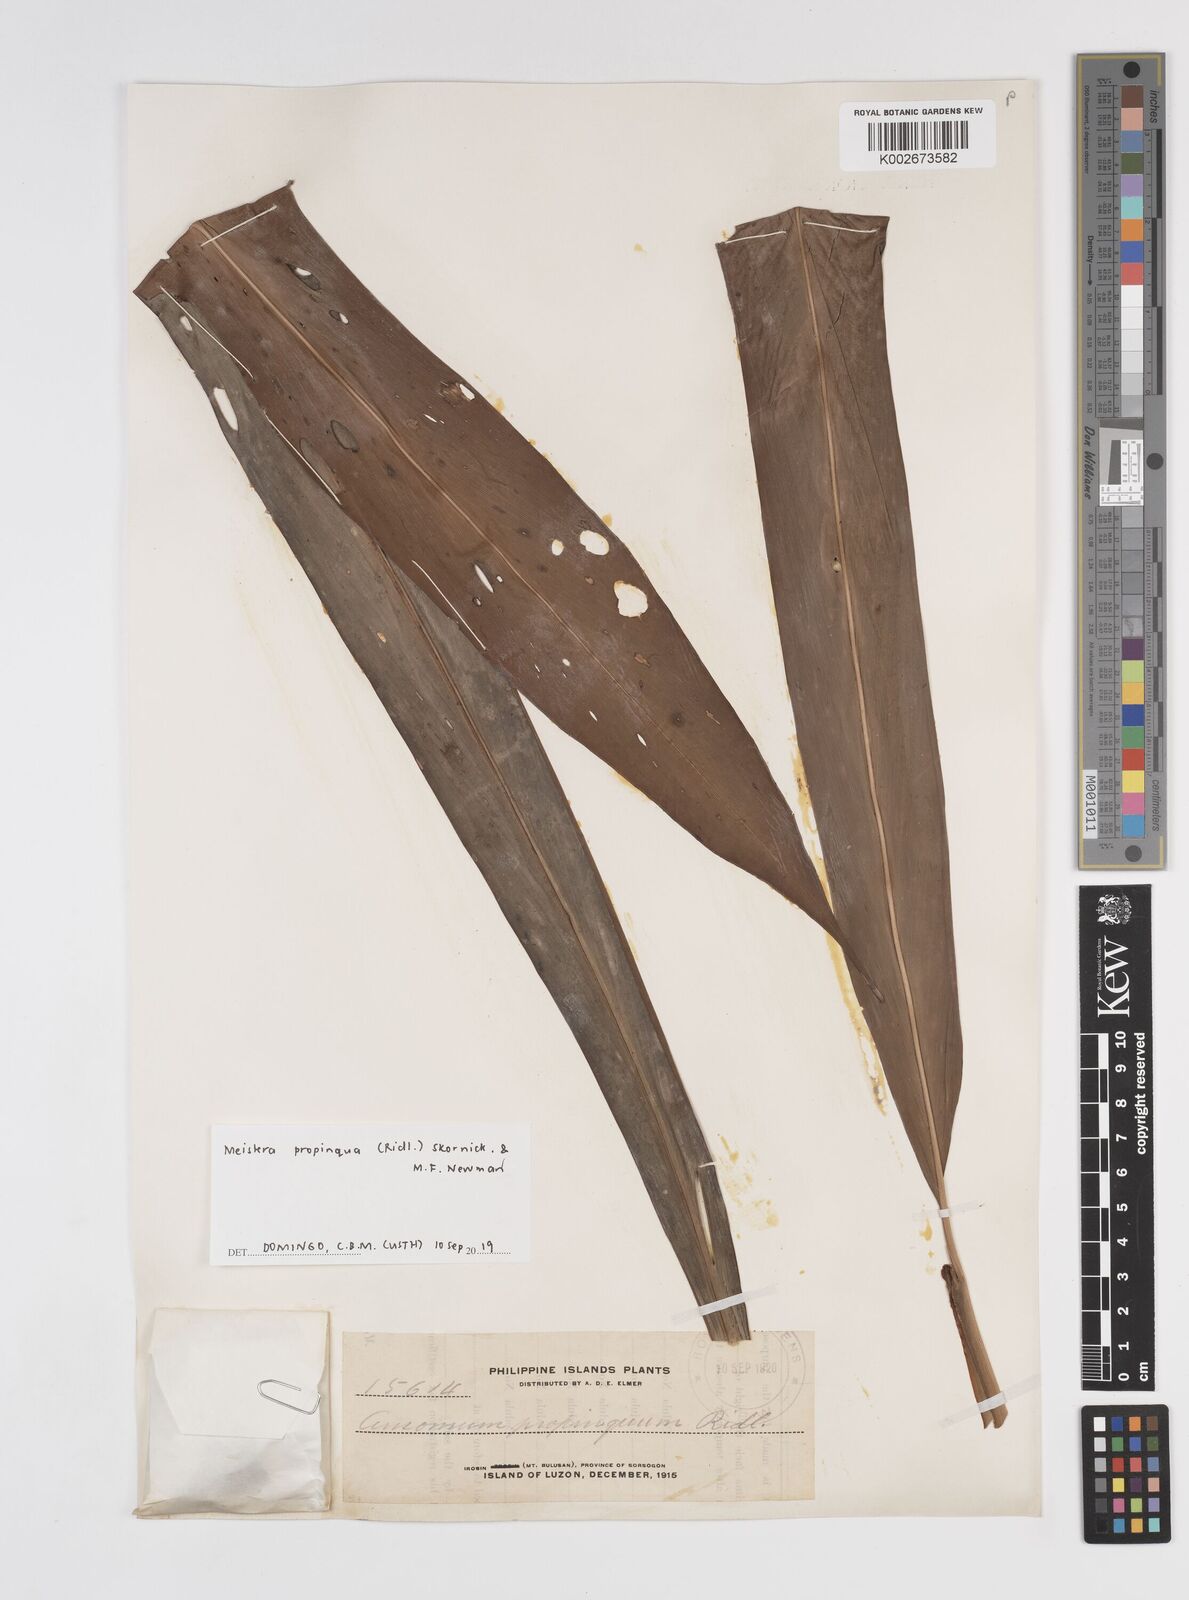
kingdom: Plantae
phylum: Tracheophyta
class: Liliopsida
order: Zingiberales
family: Zingiberaceae
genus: Meistera
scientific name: Meistera propinqua
